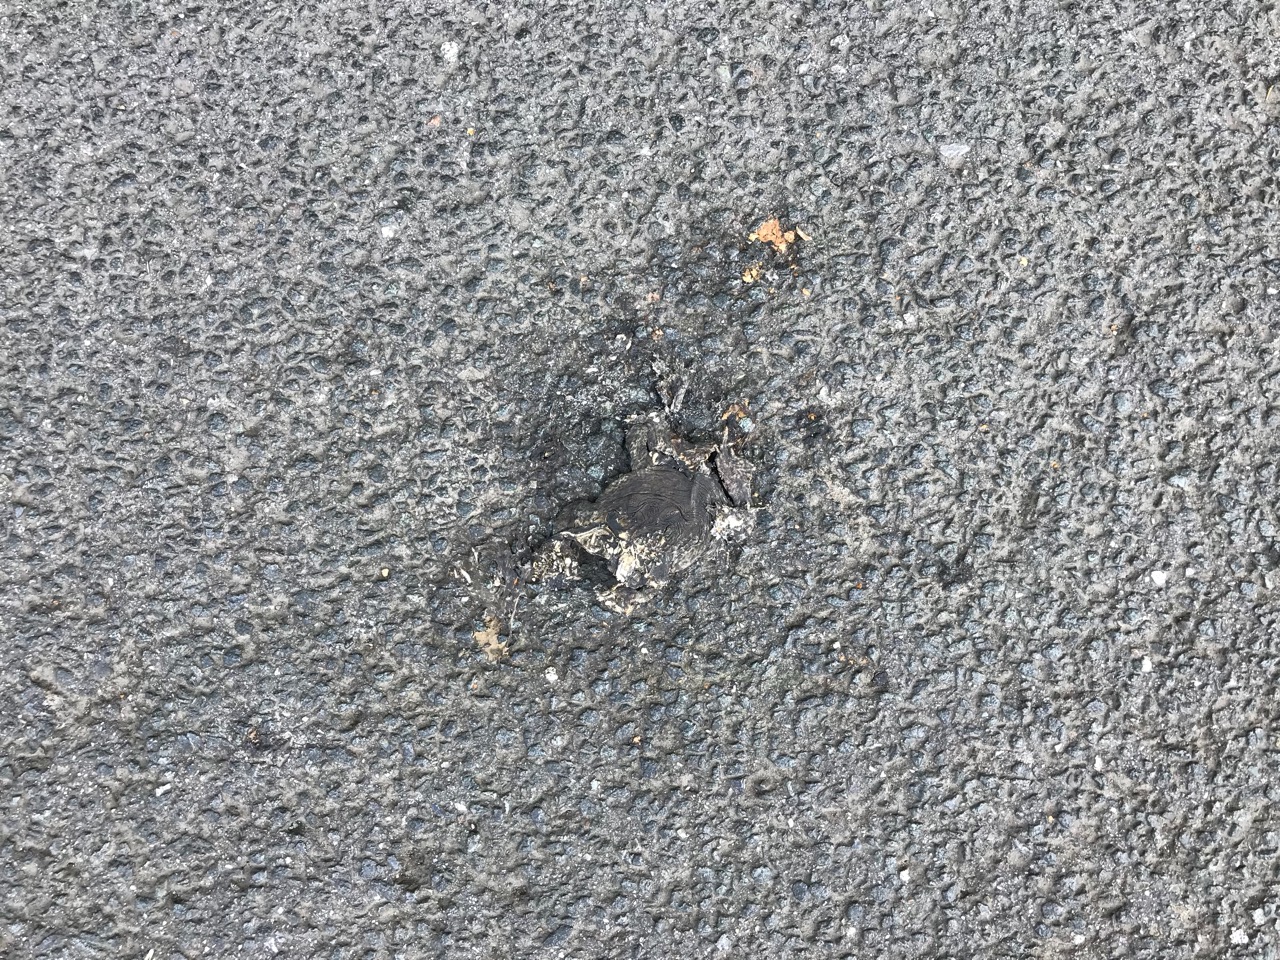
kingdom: Animalia
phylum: Chordata
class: Amphibia
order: Anura
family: Bufonidae
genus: Bufo
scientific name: Bufo bufo
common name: Common toad
